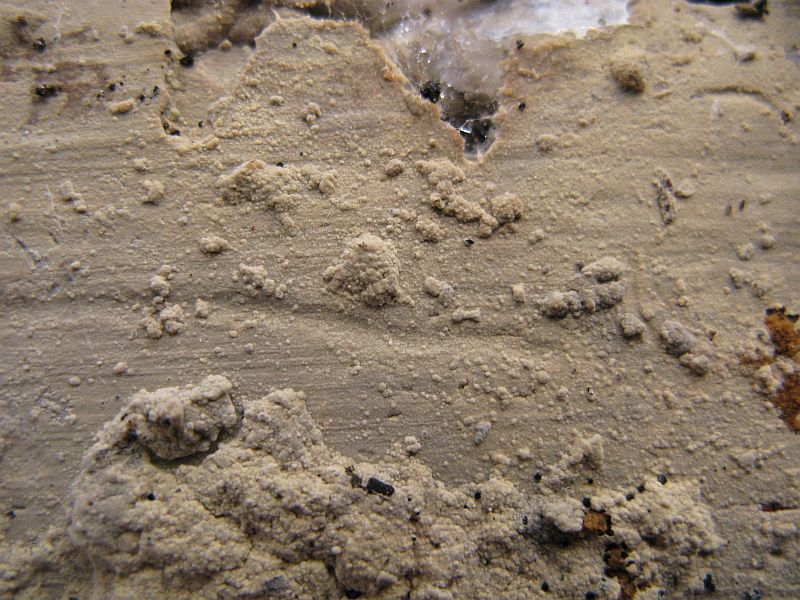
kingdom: Fungi
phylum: Basidiomycota
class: Agaricomycetes
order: Hymenochaetales
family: Hyphodontiaceae
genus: Hyphodontia
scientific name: Hyphodontia pallidula
